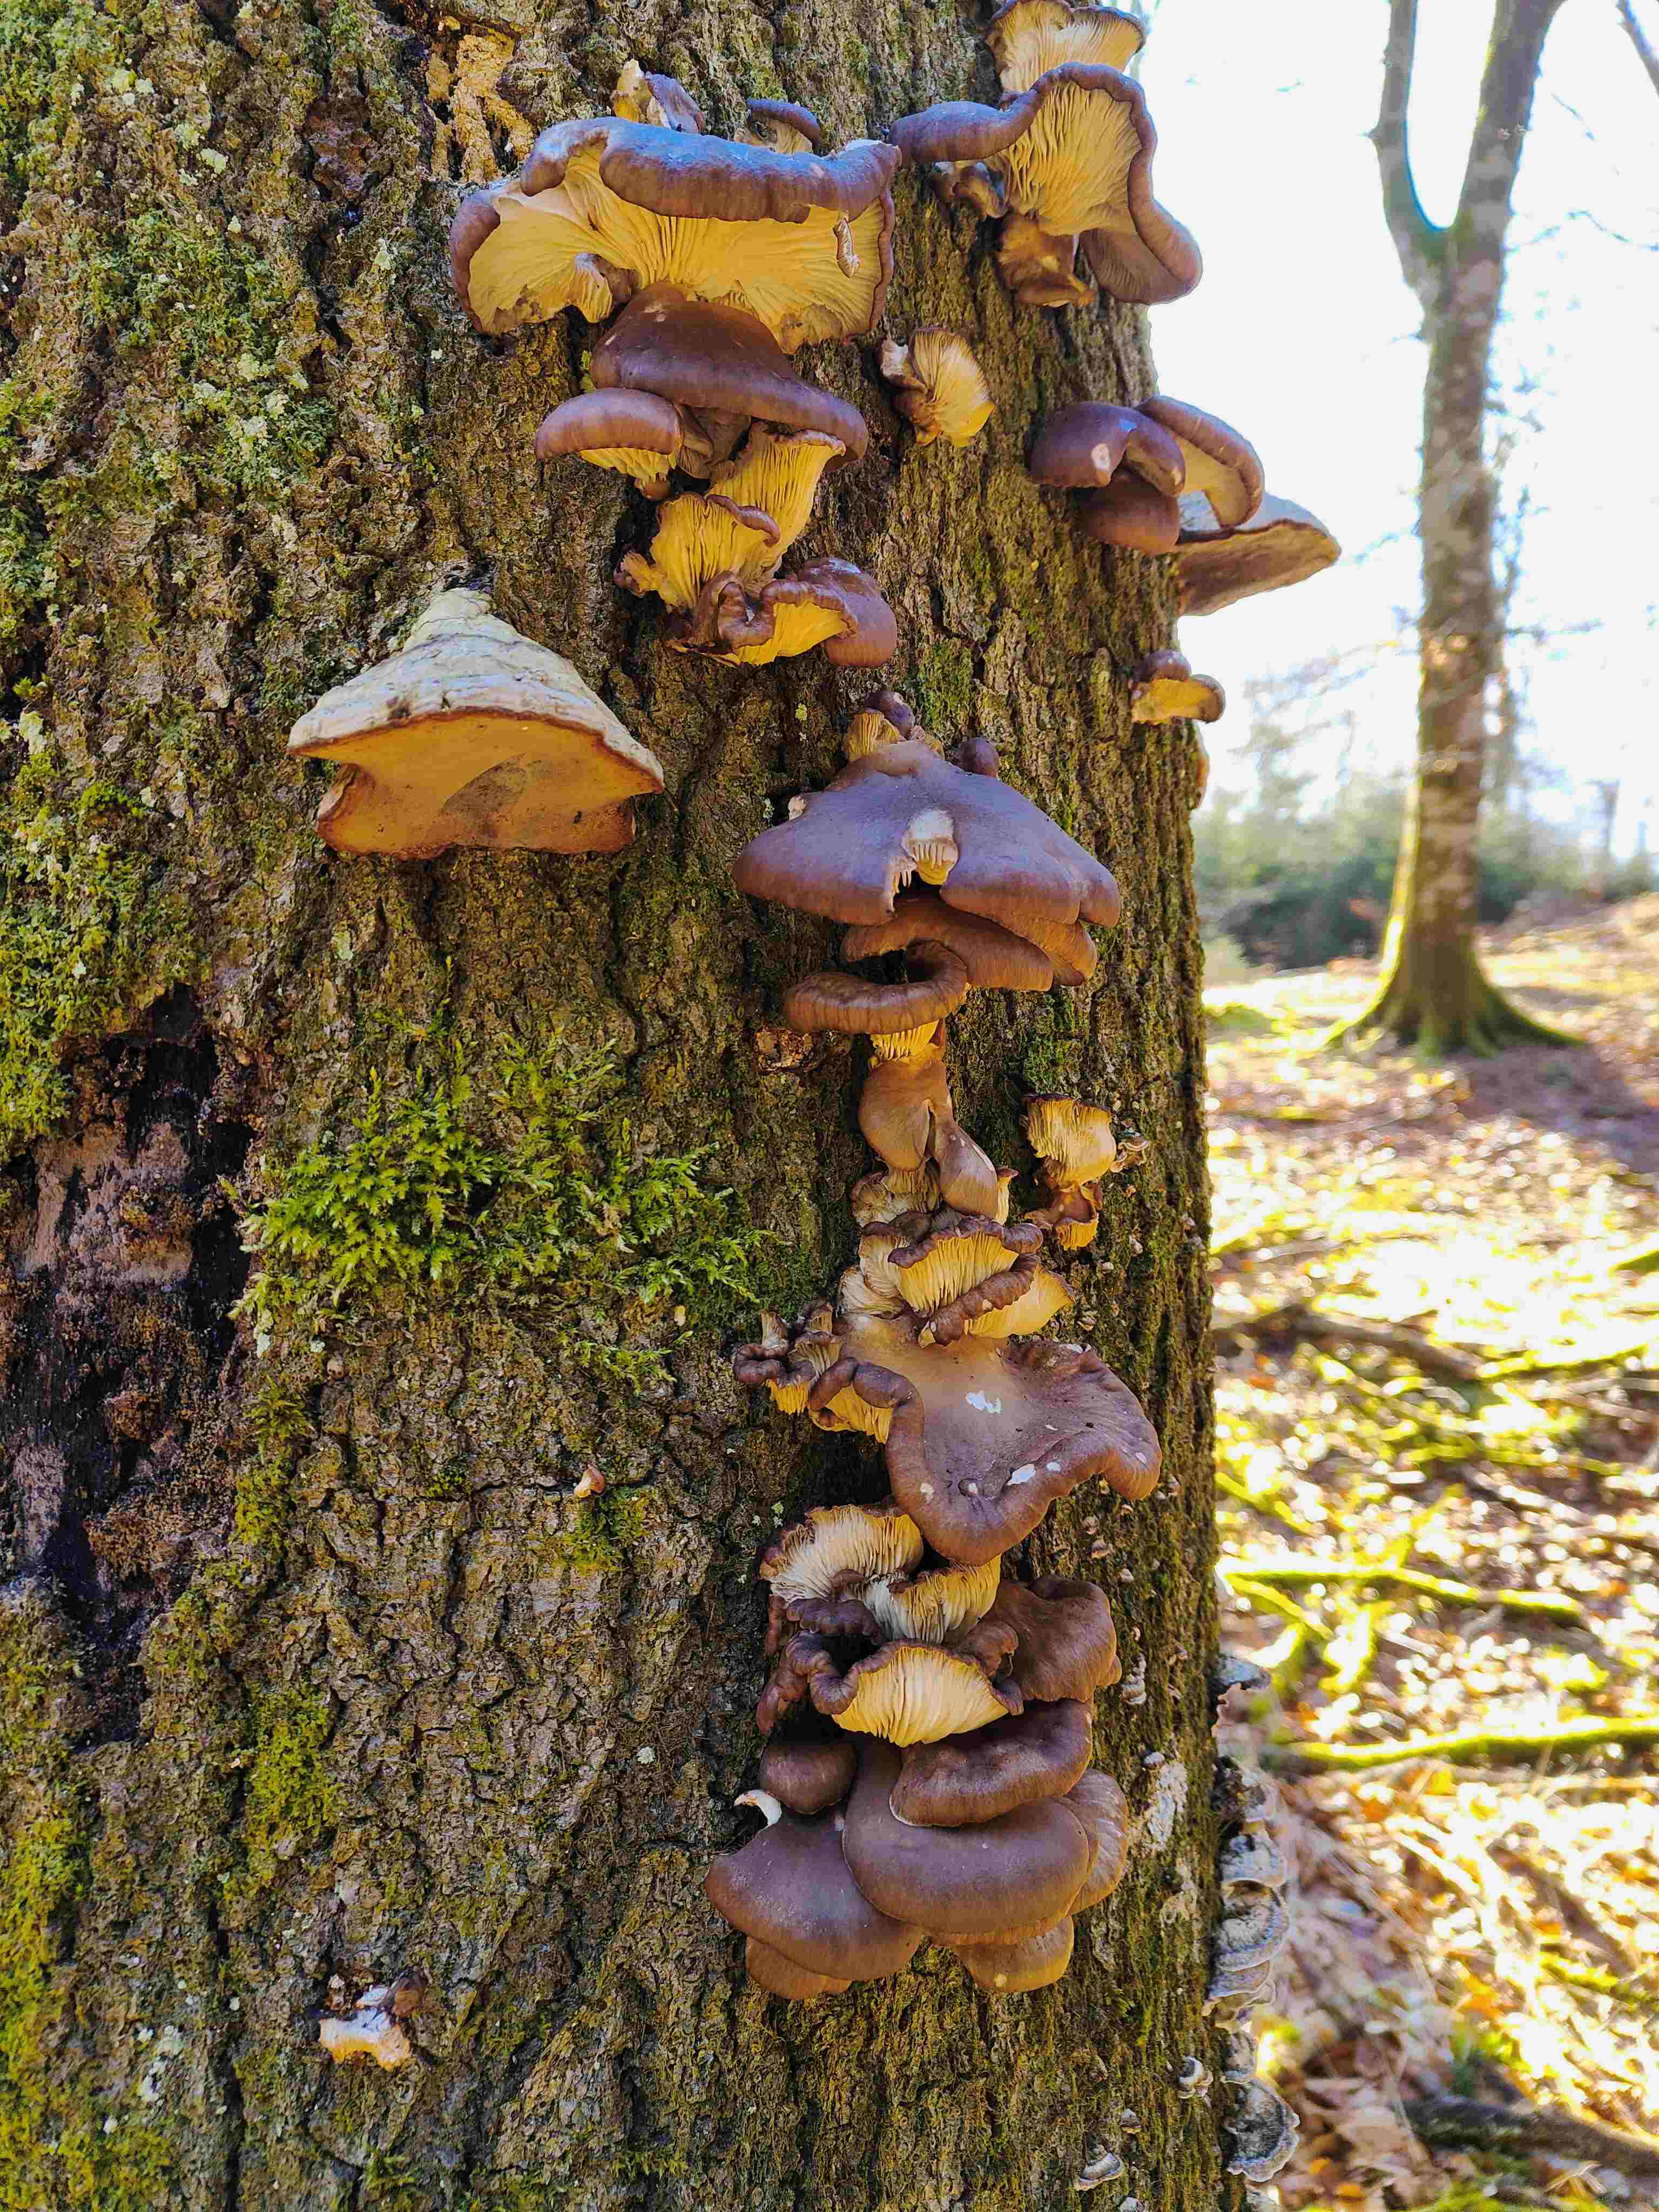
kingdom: Fungi
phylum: Basidiomycota
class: Agaricomycetes
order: Agaricales
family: Pleurotaceae
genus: Pleurotus
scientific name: Pleurotus ostreatus
